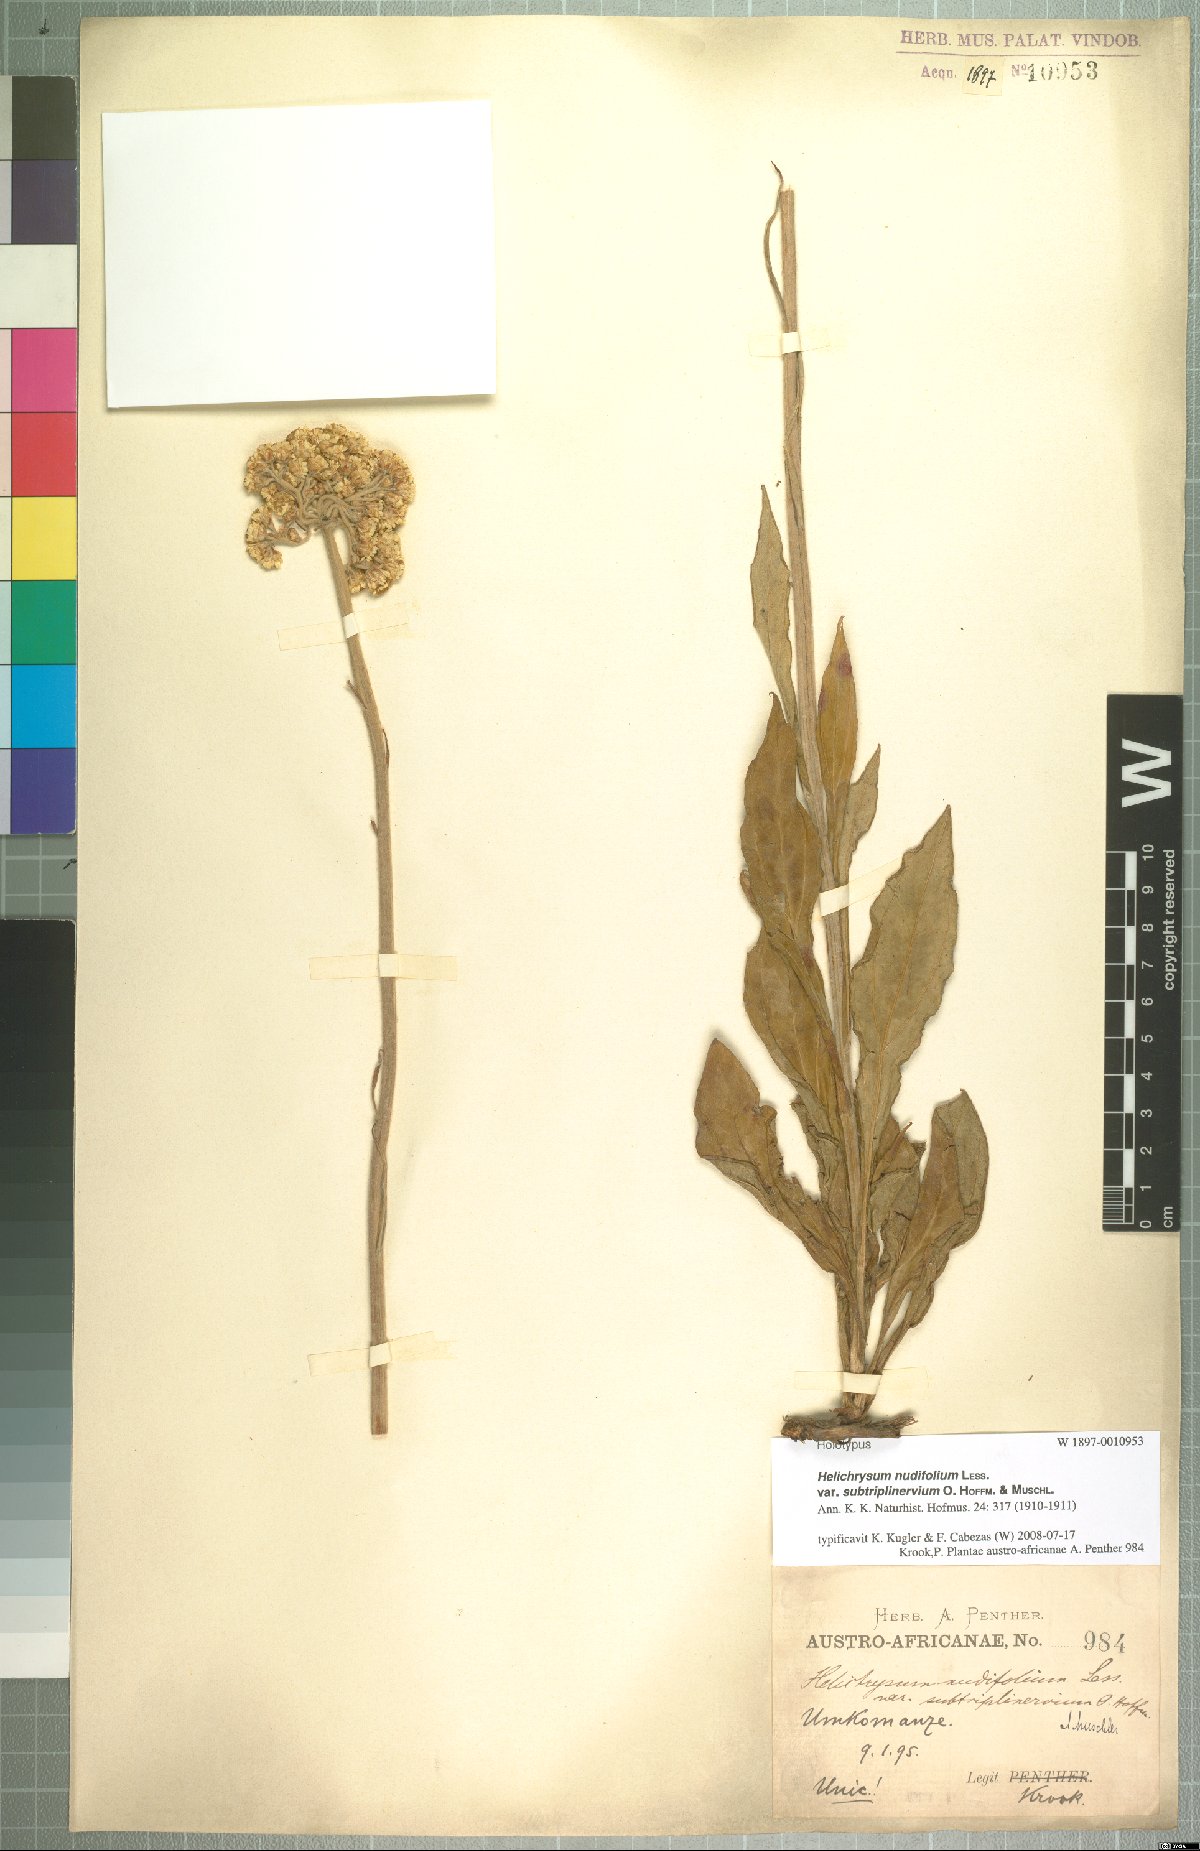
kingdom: Plantae
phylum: Tracheophyta
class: Magnoliopsida
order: Asterales
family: Asteraceae
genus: Helichrysum
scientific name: Helichrysum nudifolium
